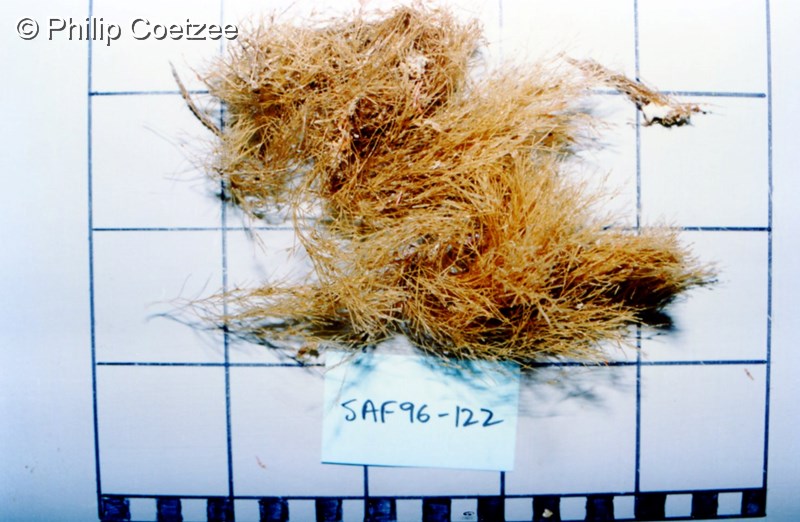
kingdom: Animalia
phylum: Cnidaria
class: Hydrozoa
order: Leptothecata
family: Sertulariidae
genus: Amphisbetia
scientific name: Amphisbetia operculata
